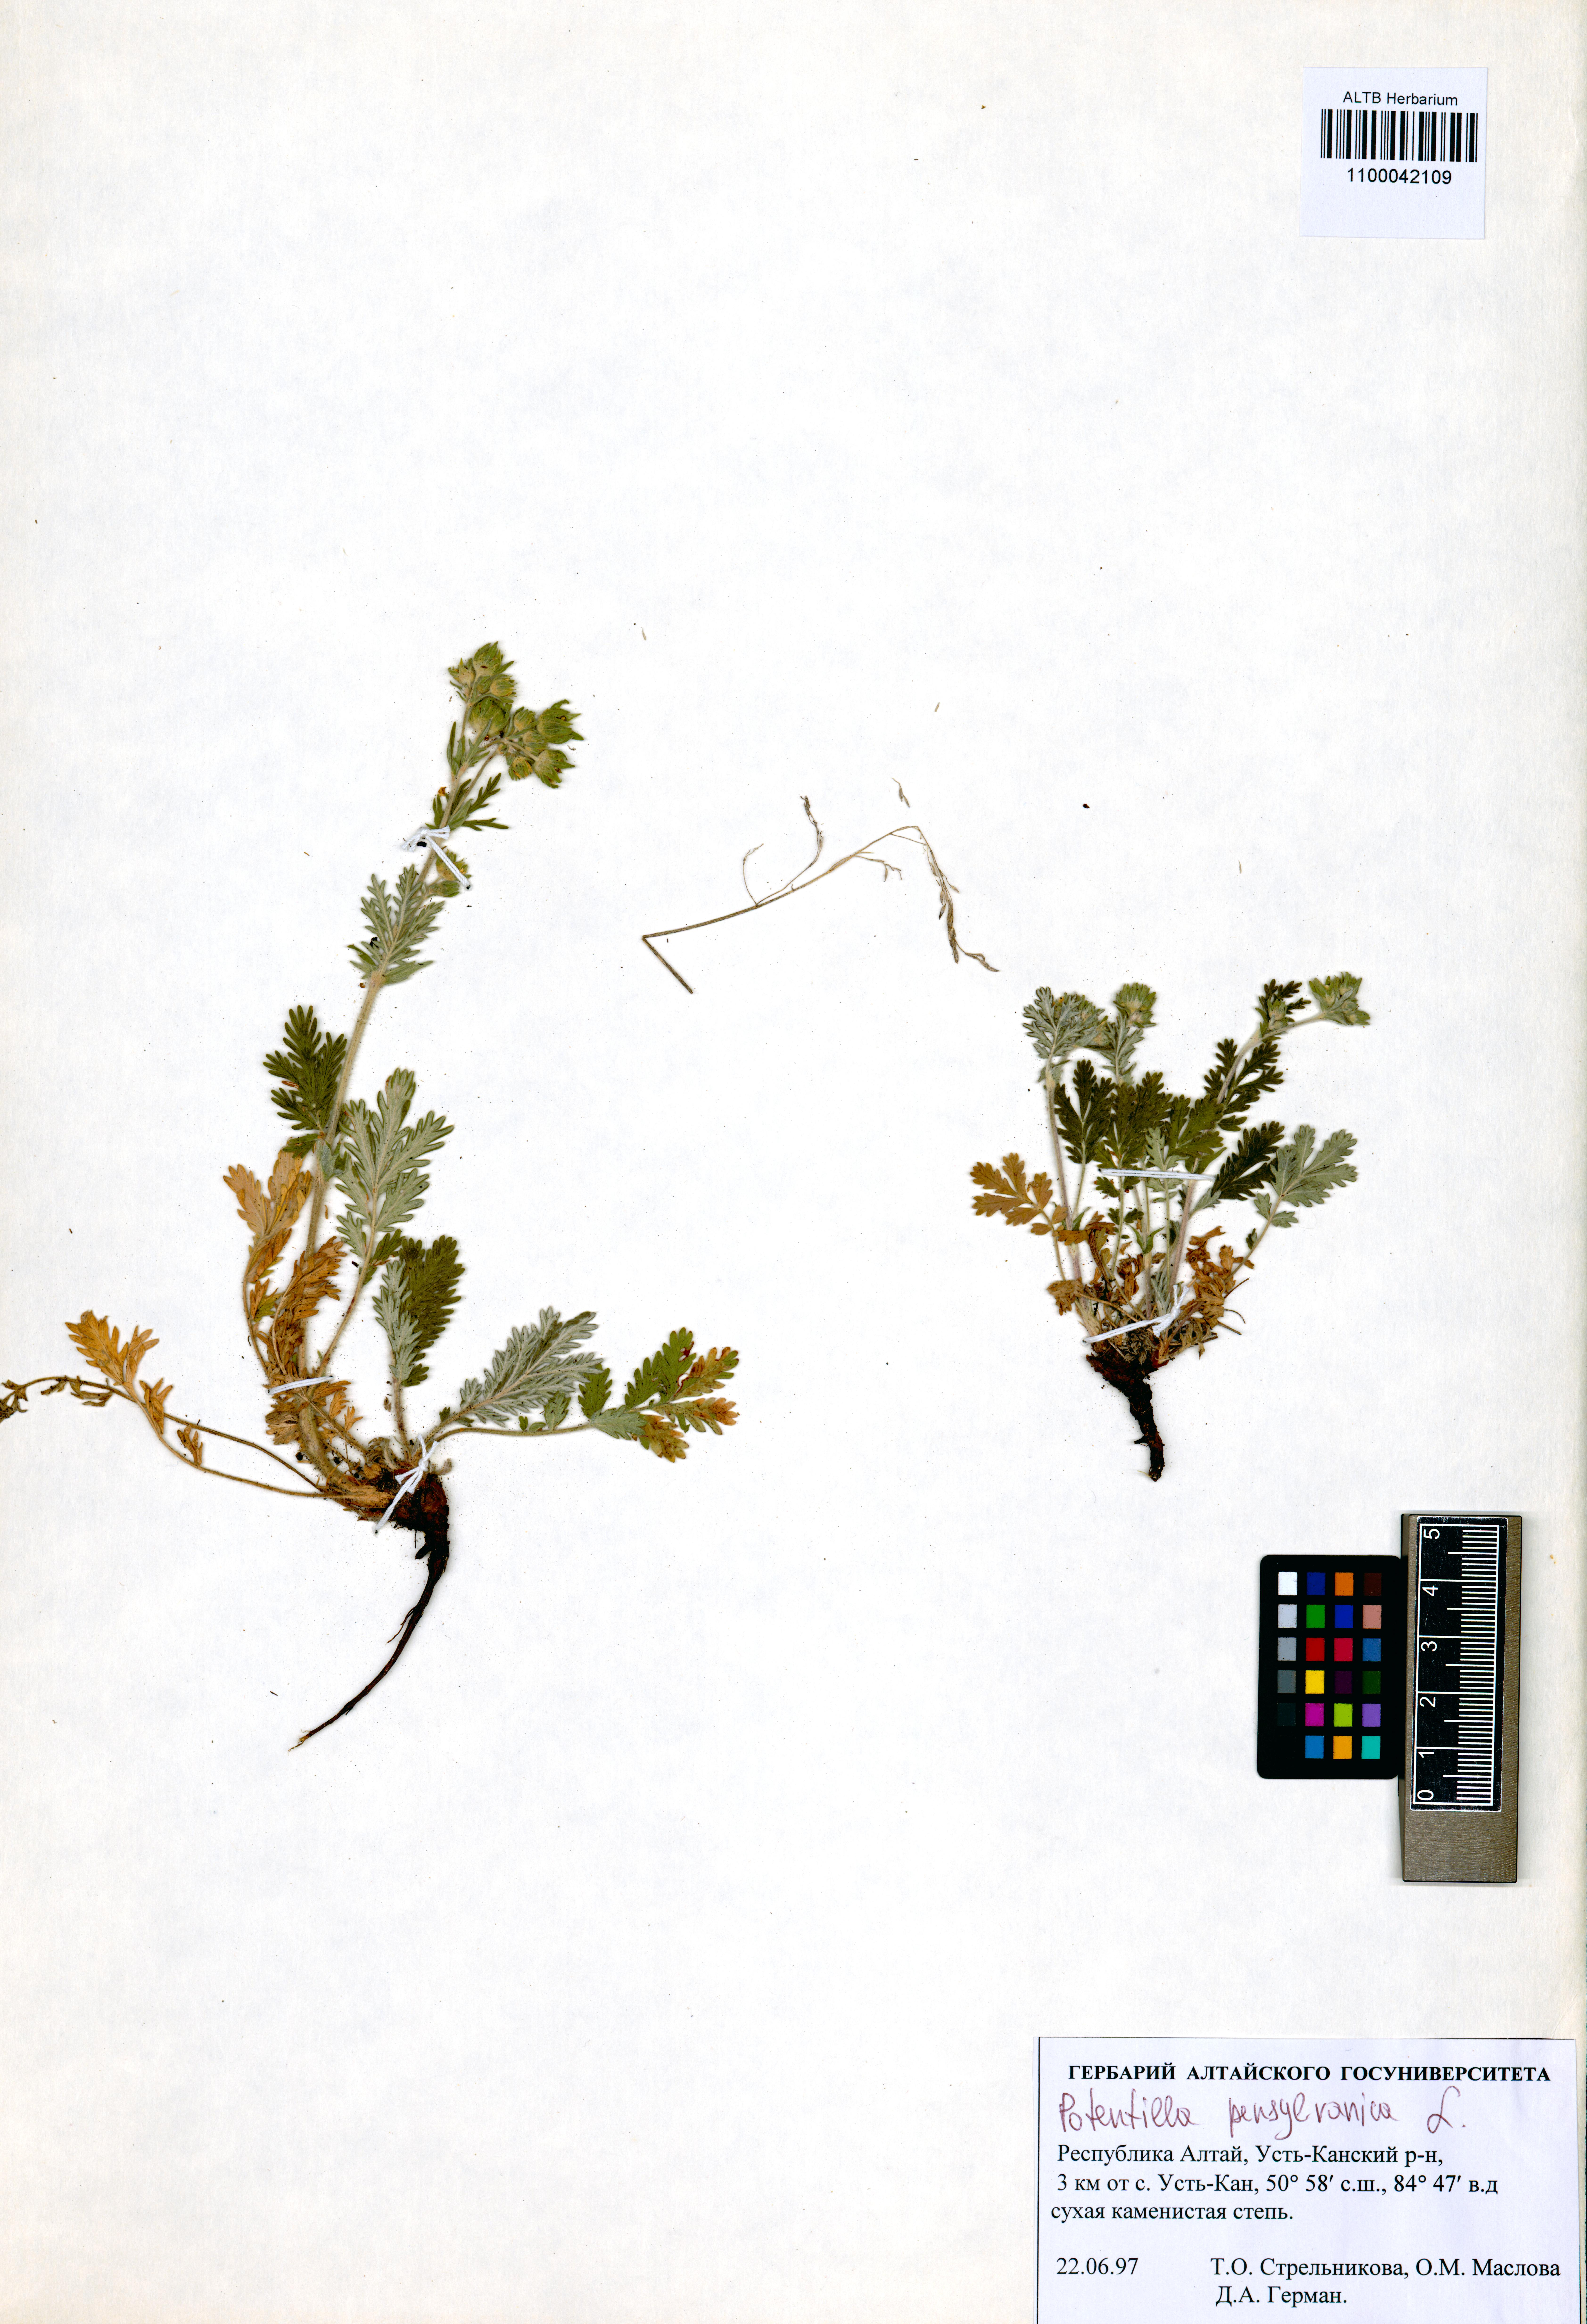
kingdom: Plantae
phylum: Tracheophyta
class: Magnoliopsida
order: Rosales
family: Rosaceae
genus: Potentilla
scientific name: Potentilla pensylvanica
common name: Pennsylvania cinquefoil
